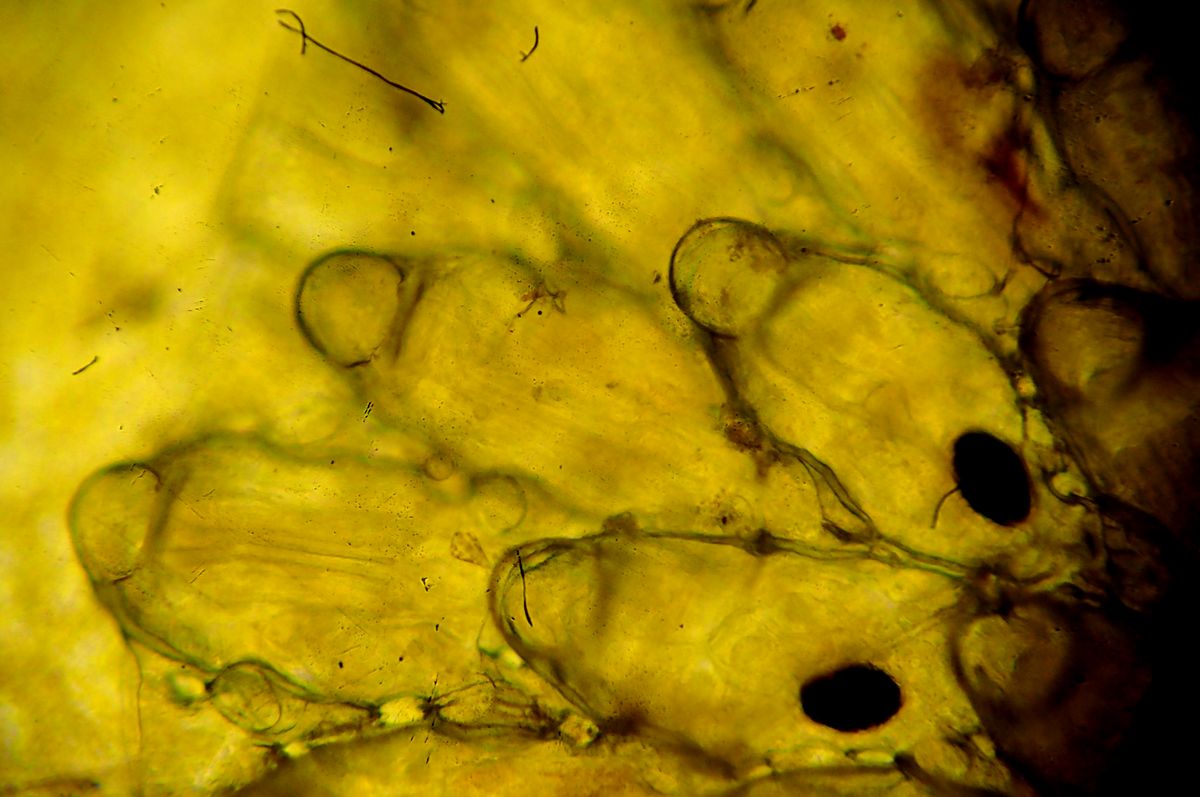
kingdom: Animalia
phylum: Bryozoa
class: Gymnolaemata
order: Cheilostomatida
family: Hippothoidae
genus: Celleporella
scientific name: Celleporella hyalina
